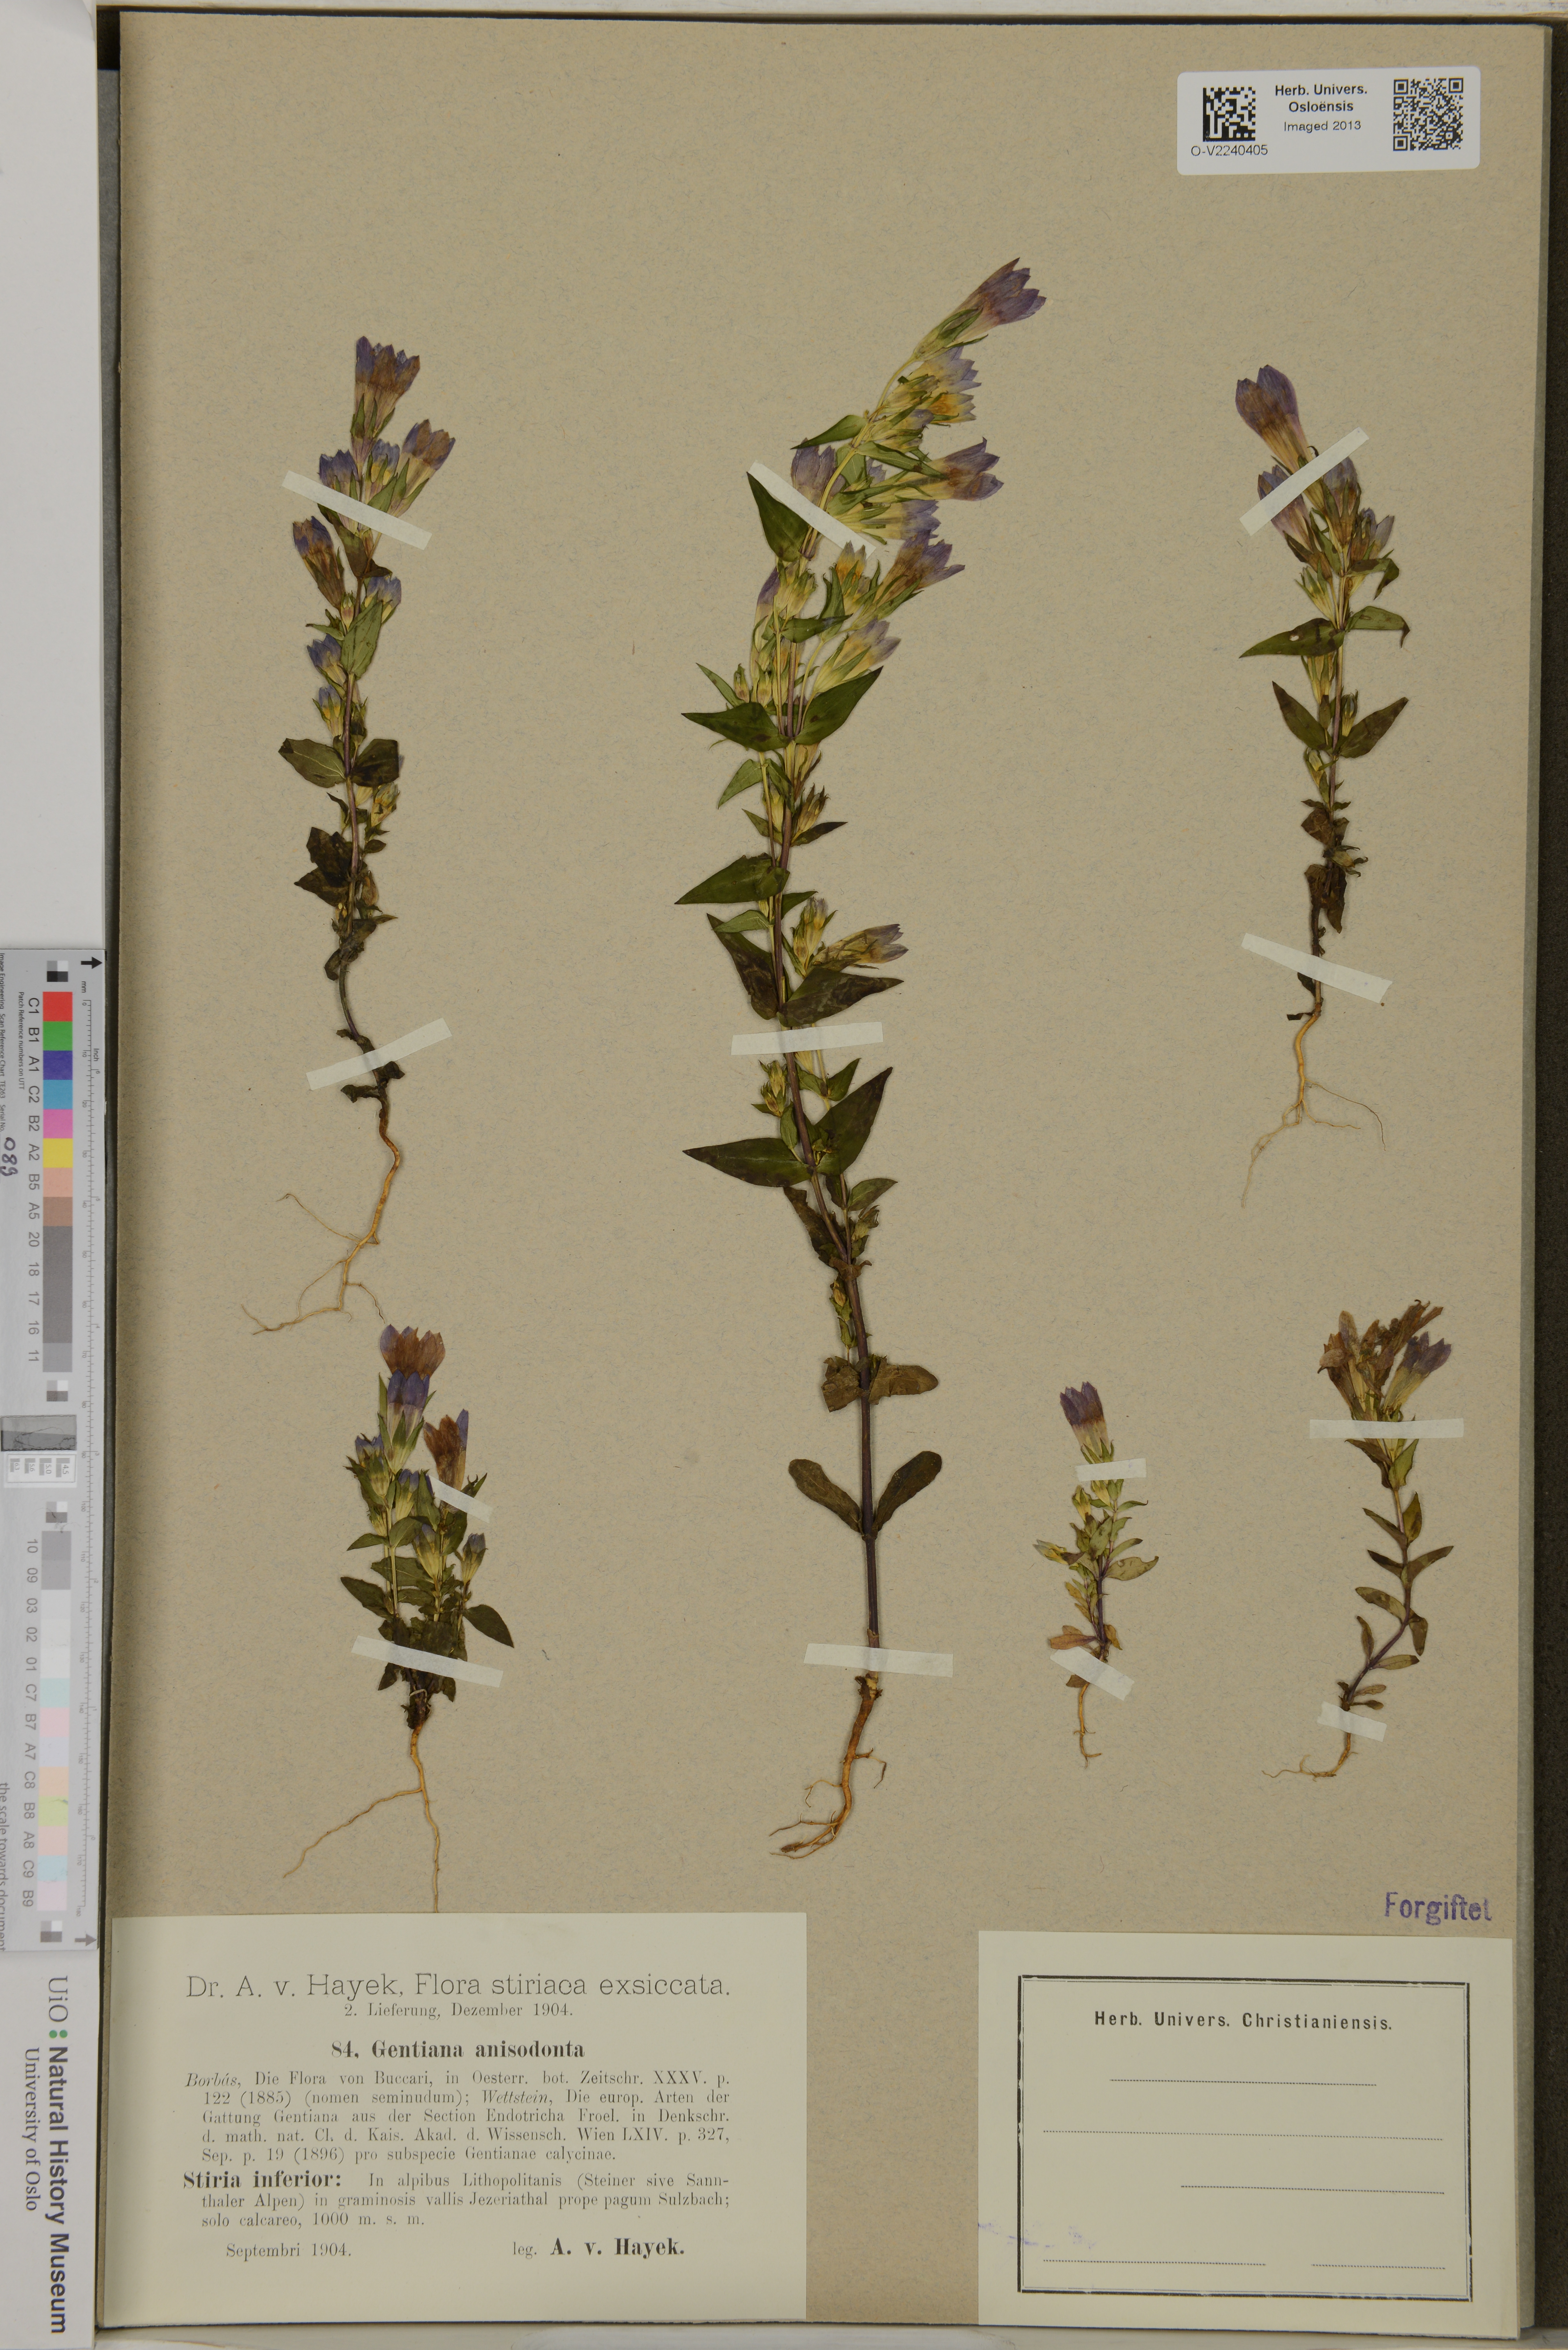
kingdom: Plantae
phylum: Tracheophyta
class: Magnoliopsida
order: Gentianales
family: Gentianaceae
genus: Gentianella
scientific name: Gentianella anisodonta
